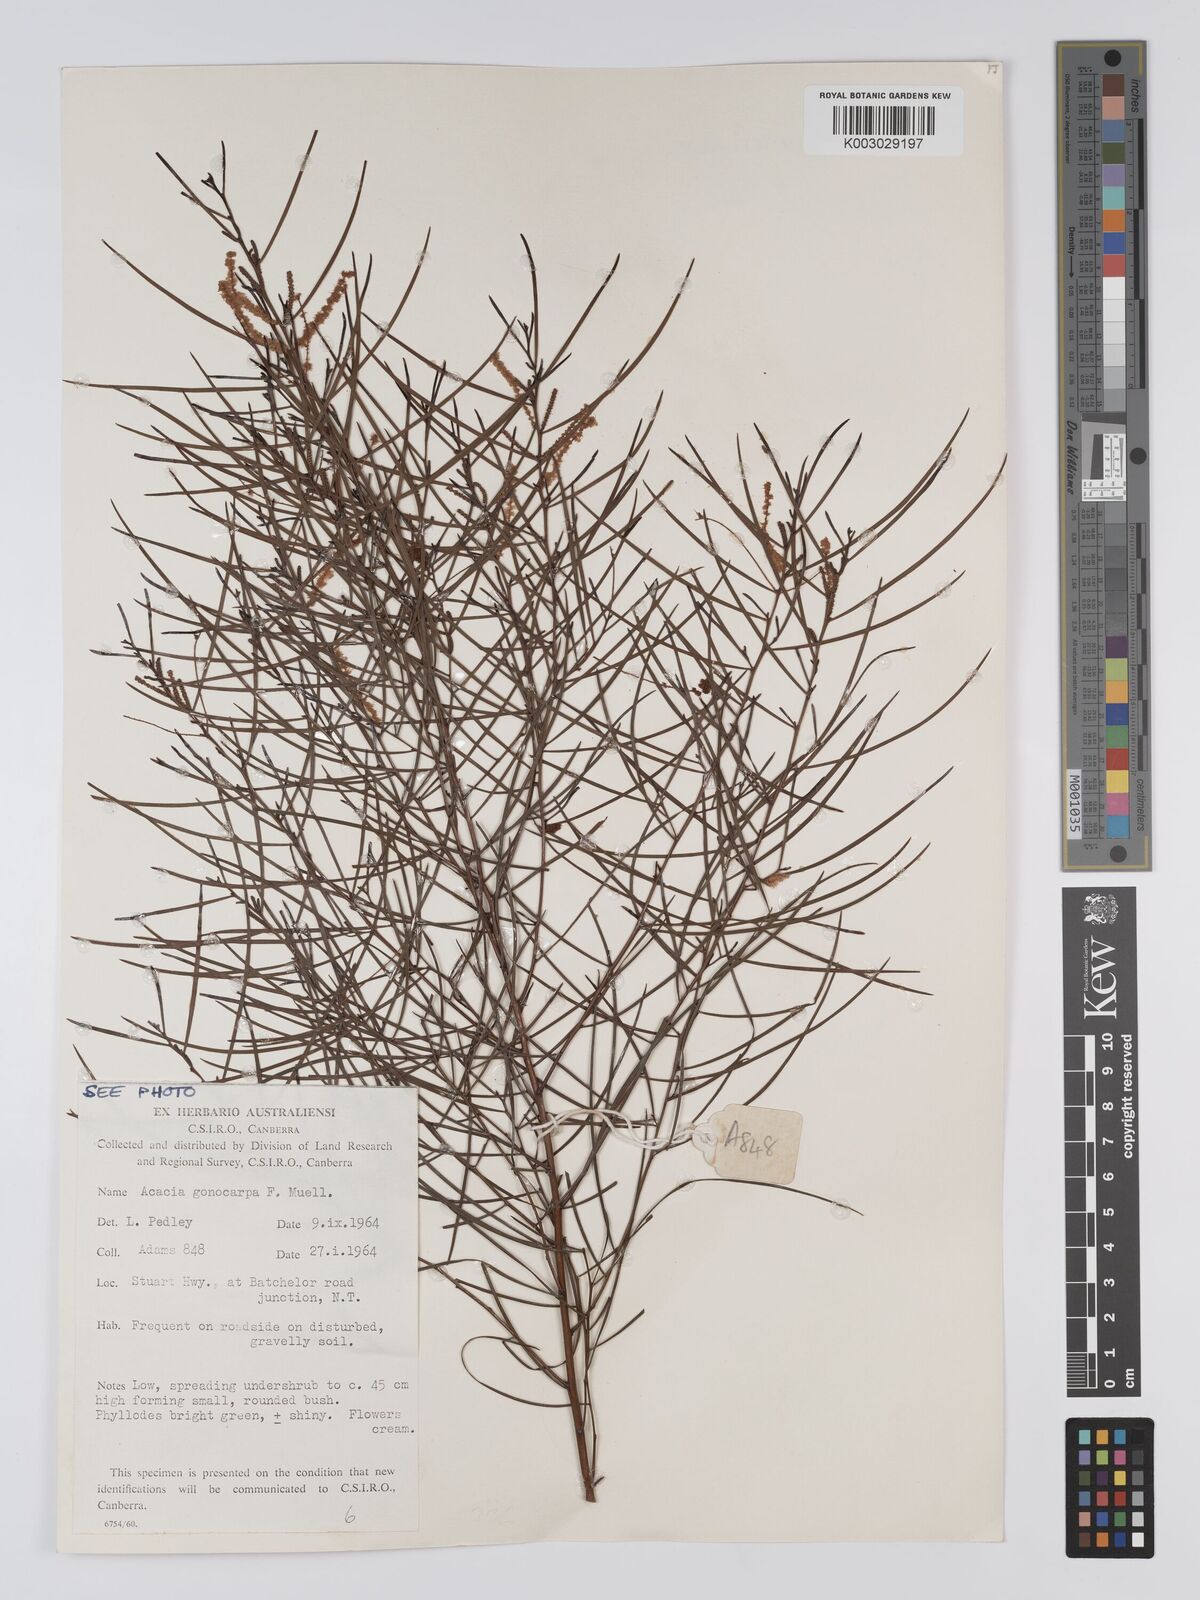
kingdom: Plantae
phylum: Tracheophyta
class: Magnoliopsida
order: Fabales
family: Fabaceae
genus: Acacia
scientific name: Acacia gonocarpa
